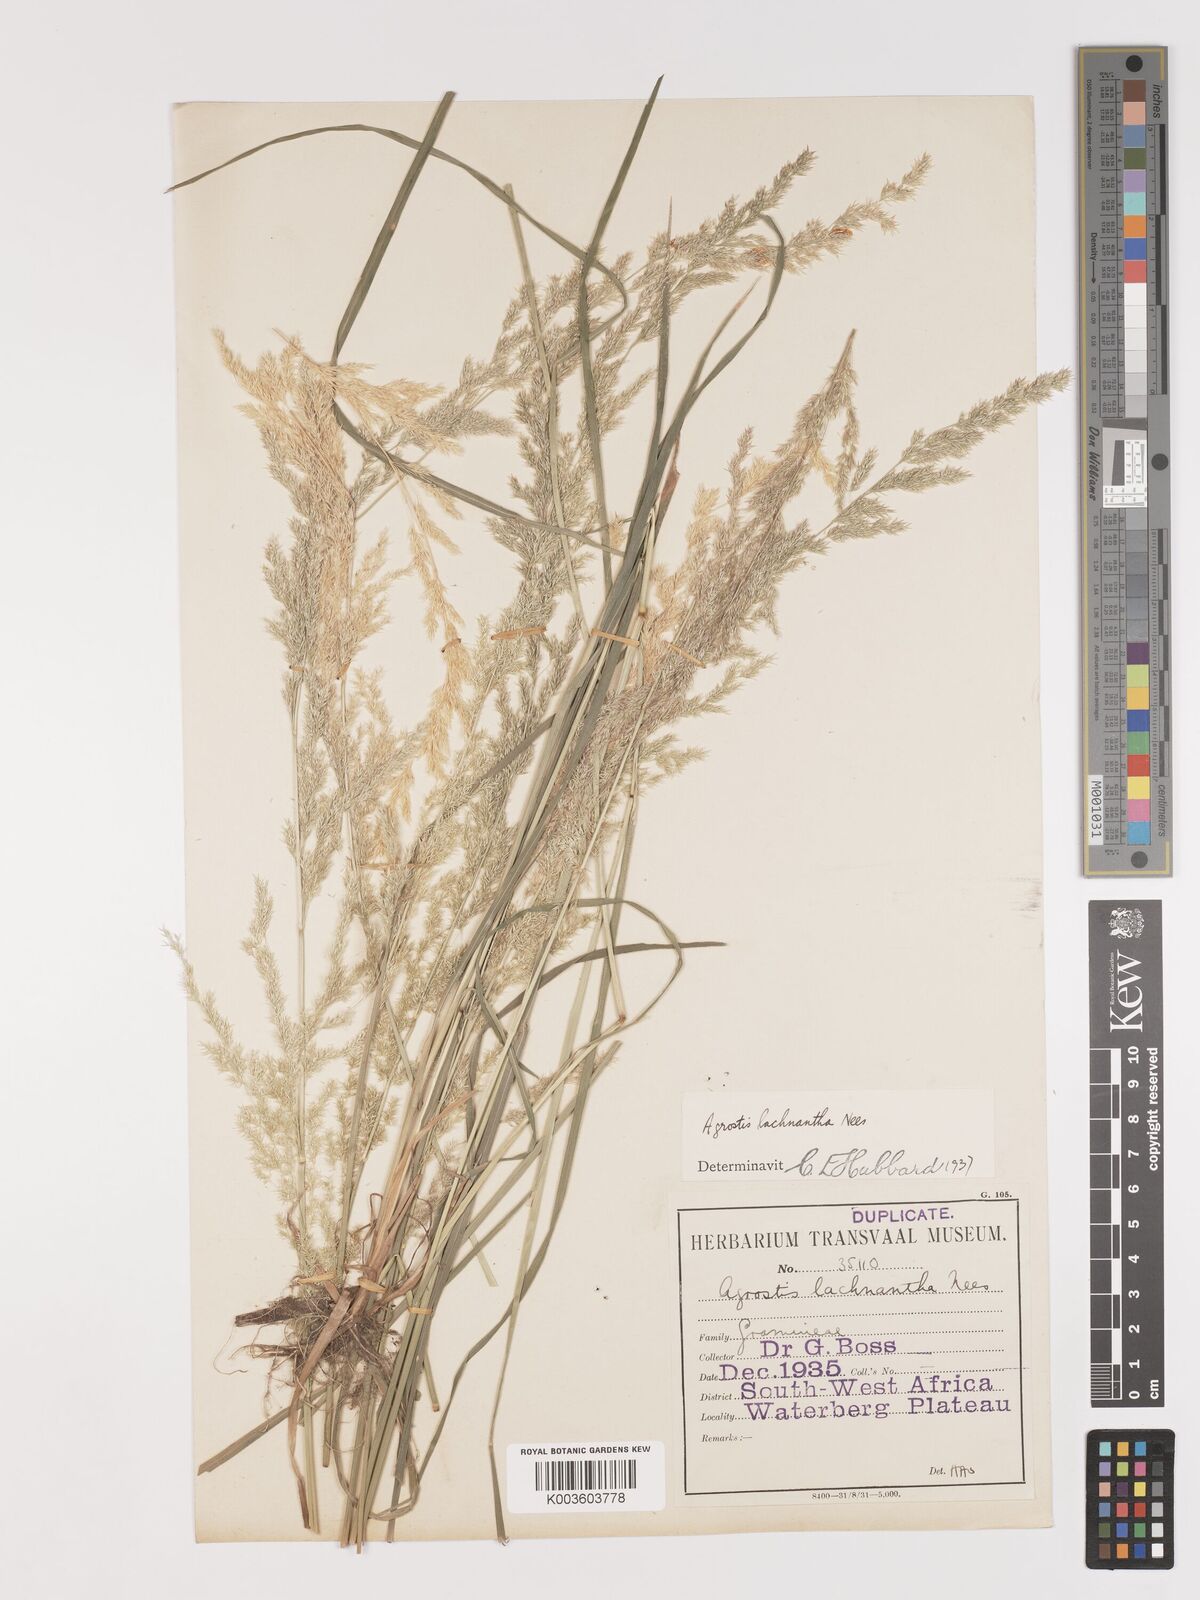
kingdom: Plantae
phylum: Tracheophyta
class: Liliopsida
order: Poales
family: Poaceae
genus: Lachnagrostis
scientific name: Lachnagrostis lachnantha
